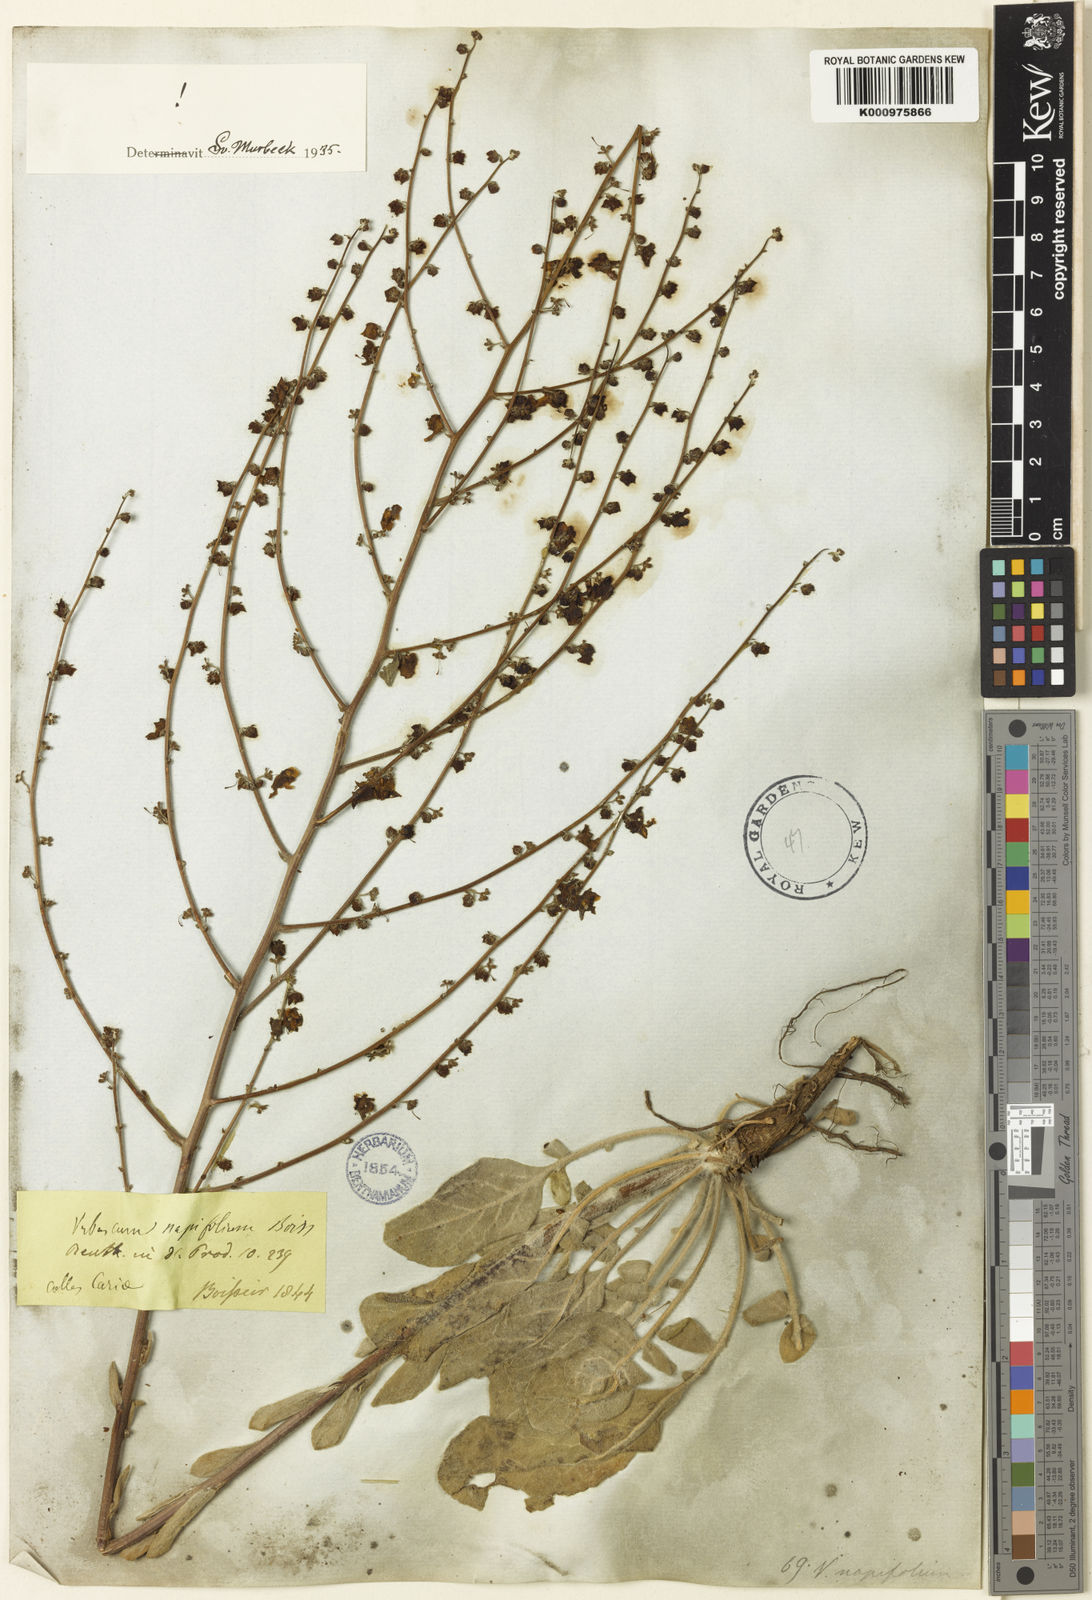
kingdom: Plantae
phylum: Tracheophyta
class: Magnoliopsida
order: Lamiales
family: Scrophulariaceae
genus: Verbascum
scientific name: Verbascum napifolium
